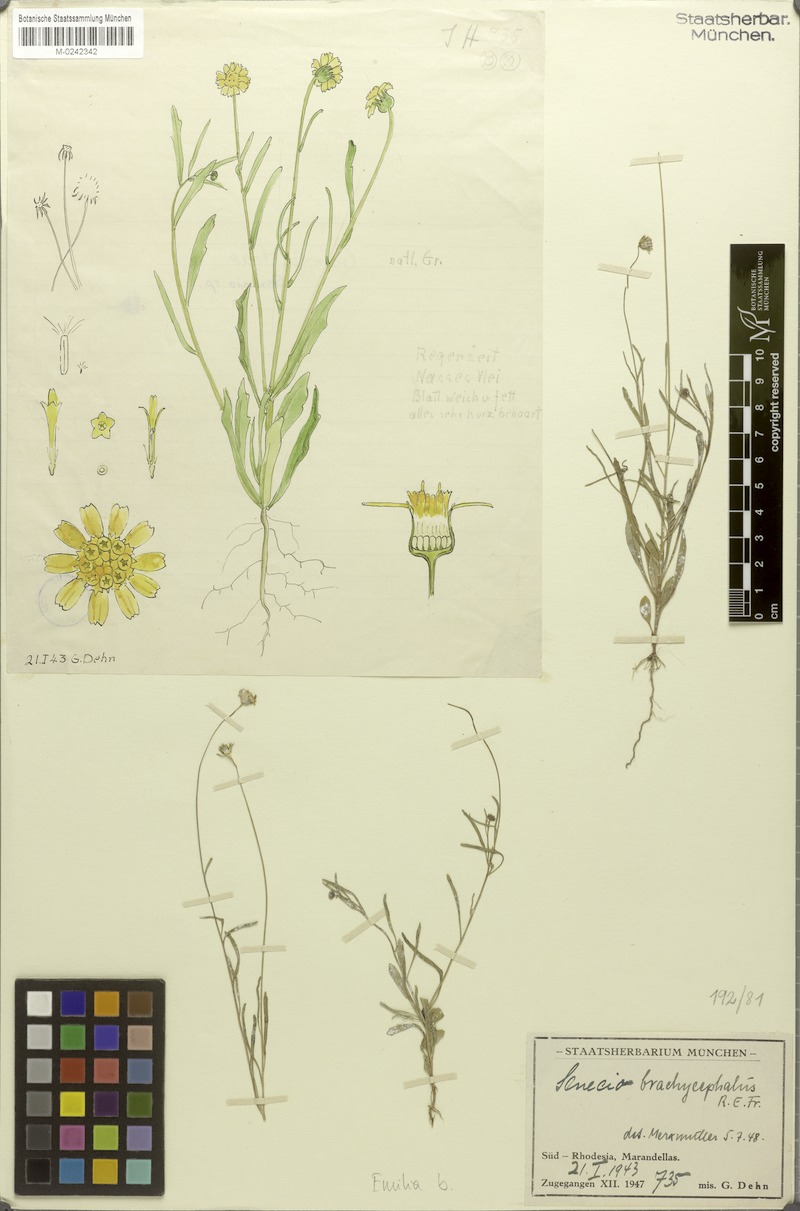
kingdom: Plantae
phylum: Tracheophyta
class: Magnoliopsida
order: Asterales
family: Asteraceae
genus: Emilia
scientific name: Emilia brachycephala
